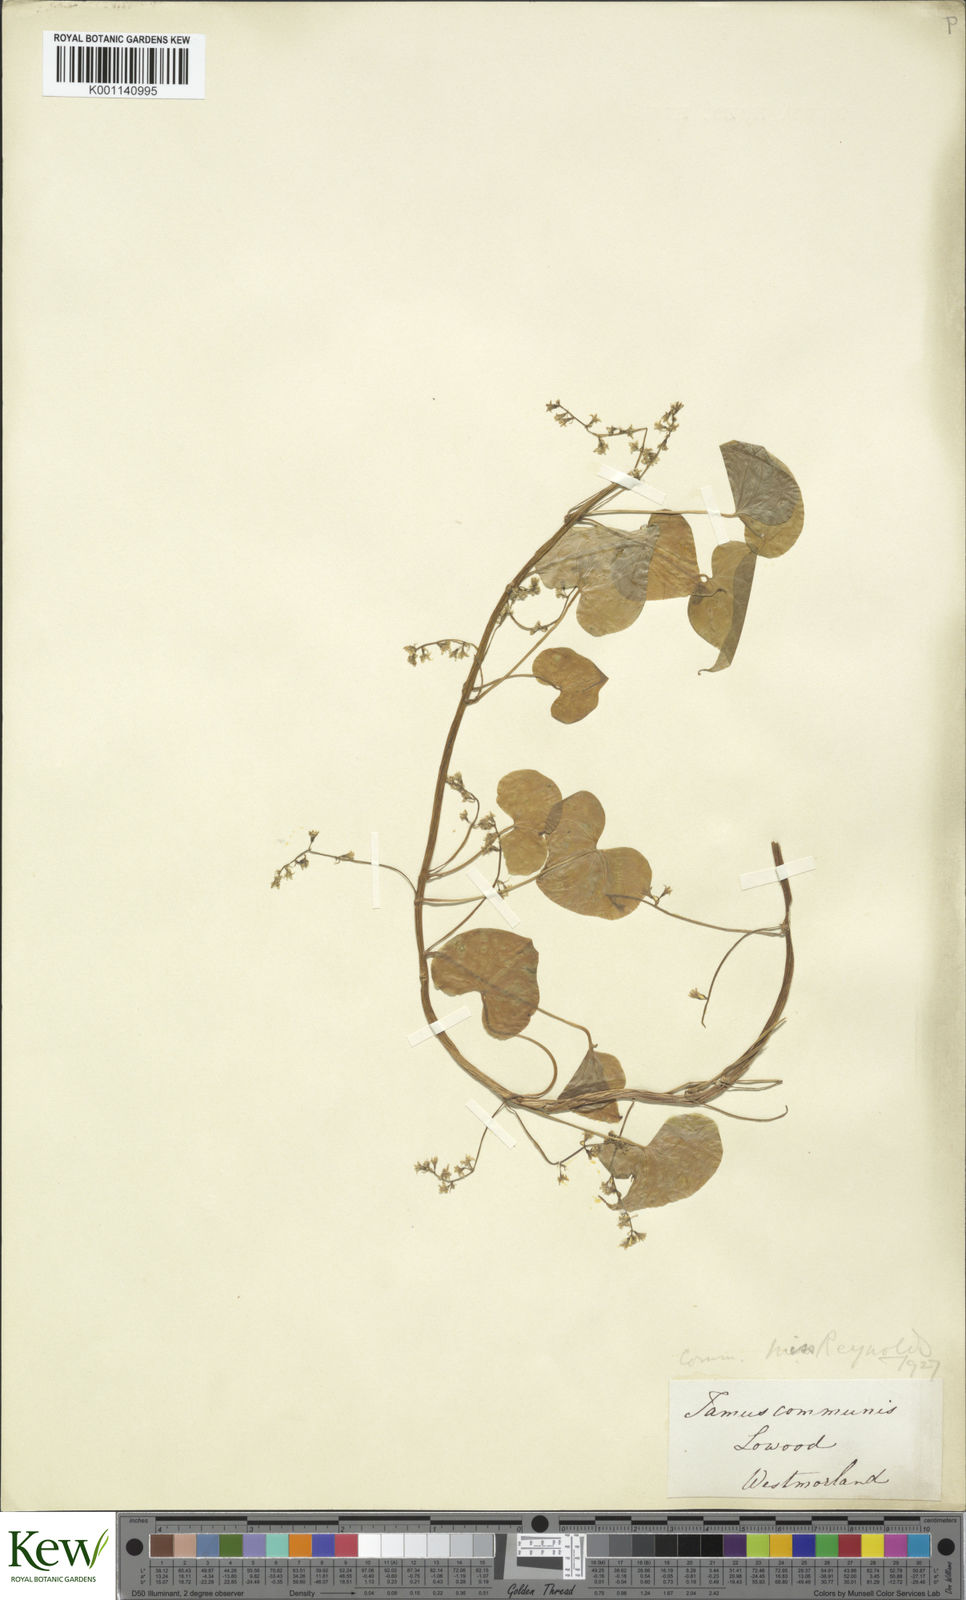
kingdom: Plantae
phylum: Tracheophyta
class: Liliopsida
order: Dioscoreales
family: Dioscoreaceae
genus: Dioscorea
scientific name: Dioscorea communis
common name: Black-bindweed
